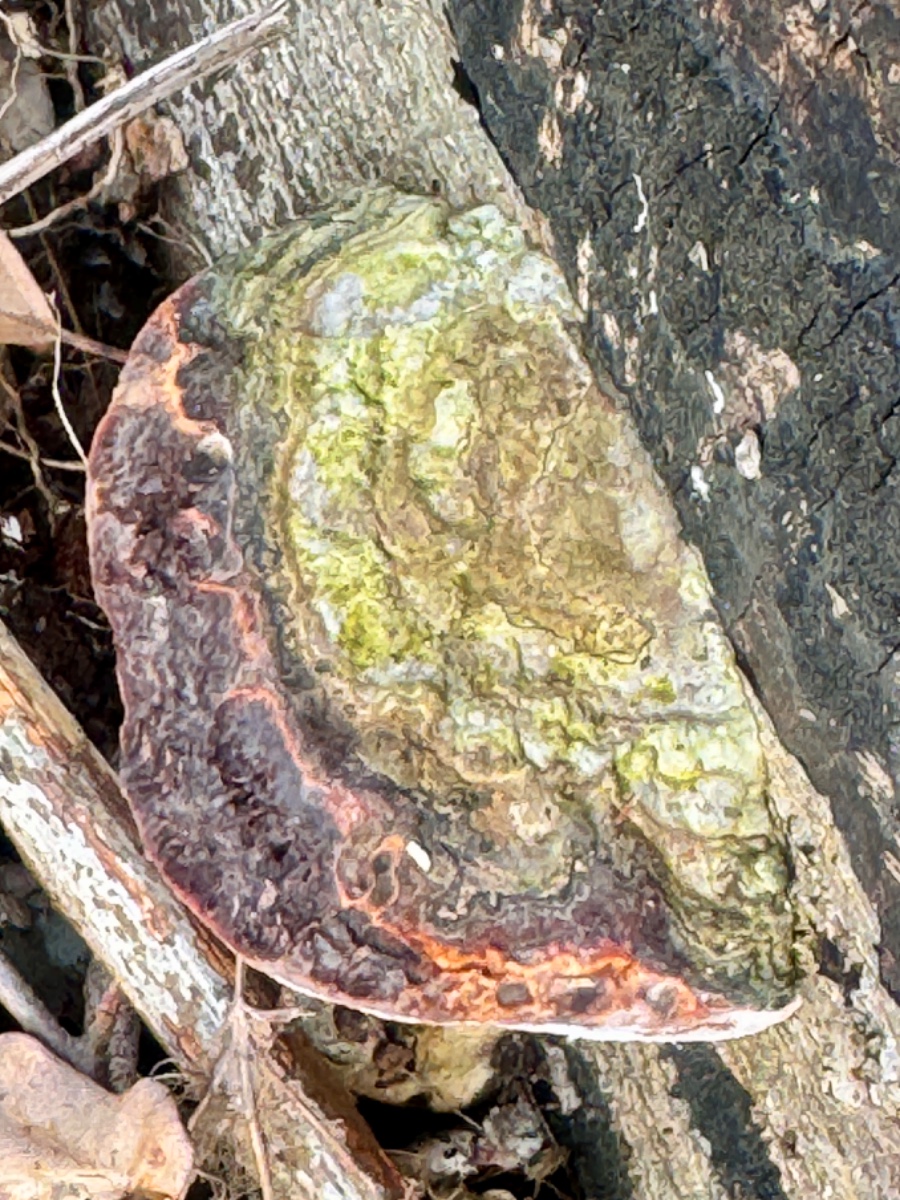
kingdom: Fungi
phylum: Basidiomycota
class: Agaricomycetes
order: Polyporales
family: Fomitopsidaceae
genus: Fomitopsis
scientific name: Fomitopsis pinicola
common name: randbæltet hovporesvamp
